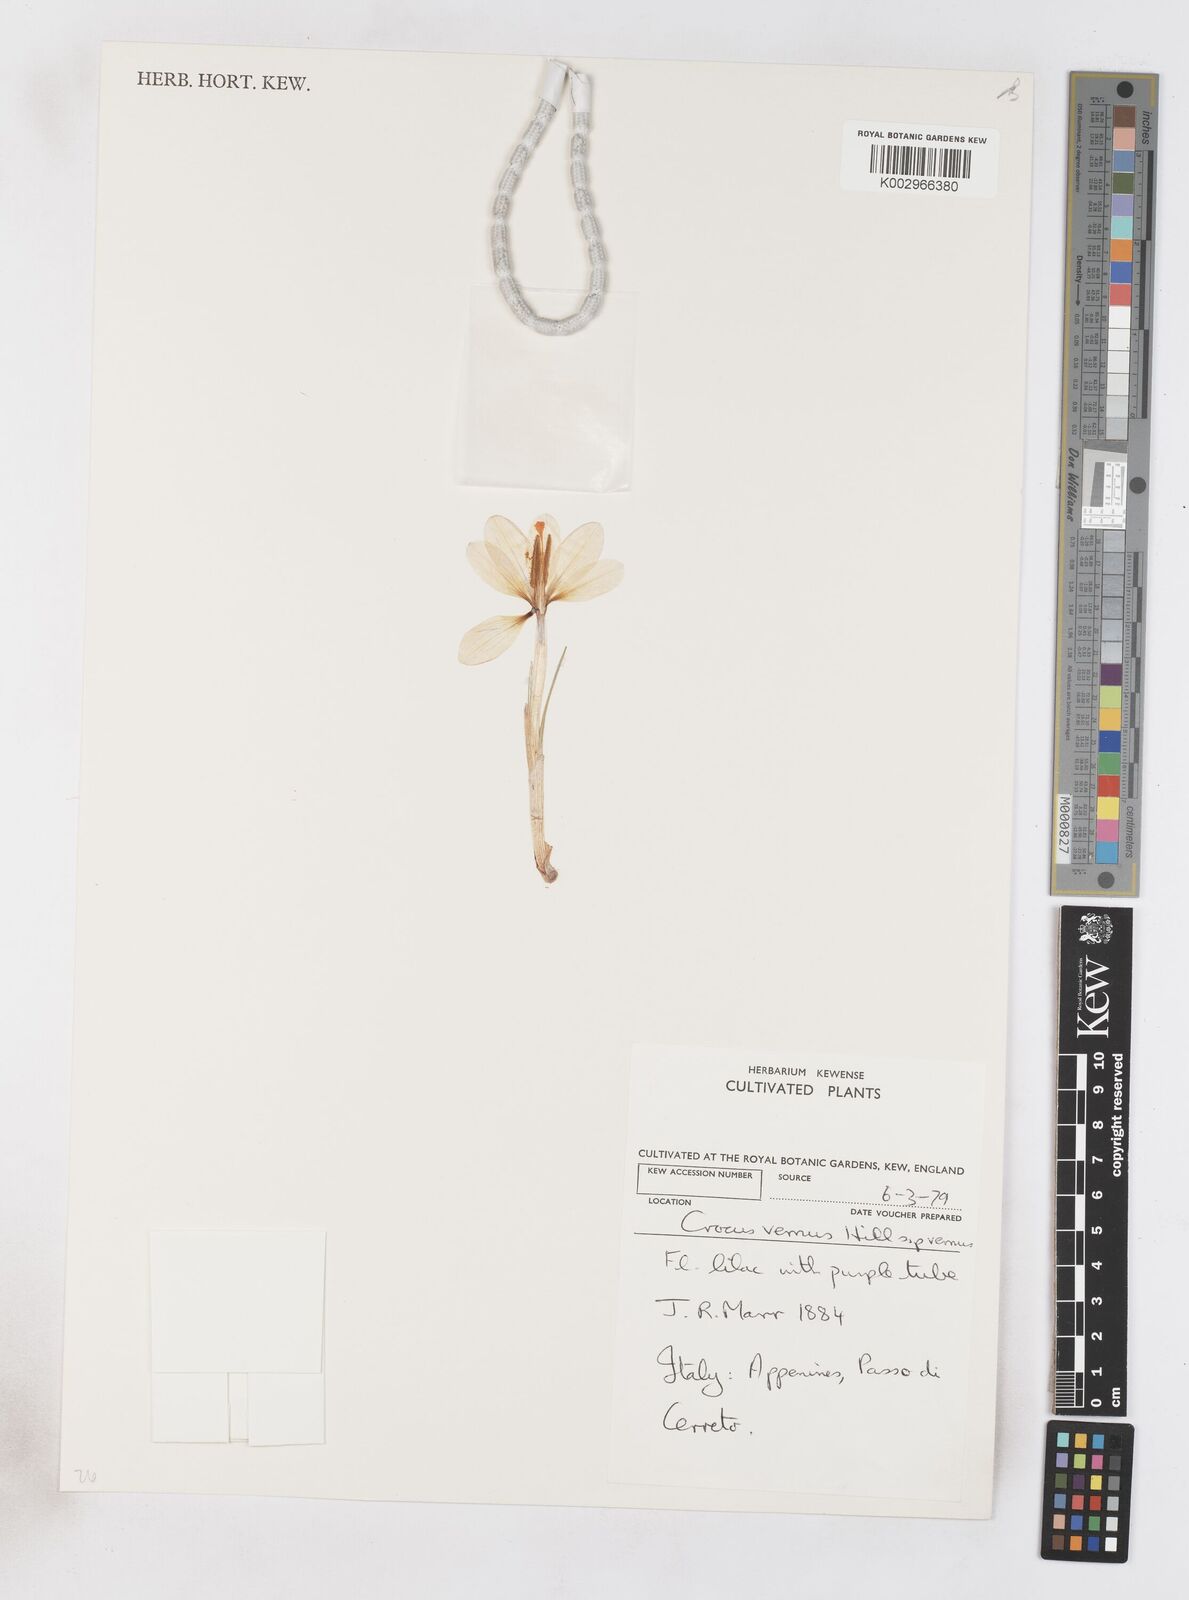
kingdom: Plantae
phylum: Tracheophyta
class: Liliopsida
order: Asparagales
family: Iridaceae
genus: Crocus
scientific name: Crocus vernus
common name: Spring crocus
